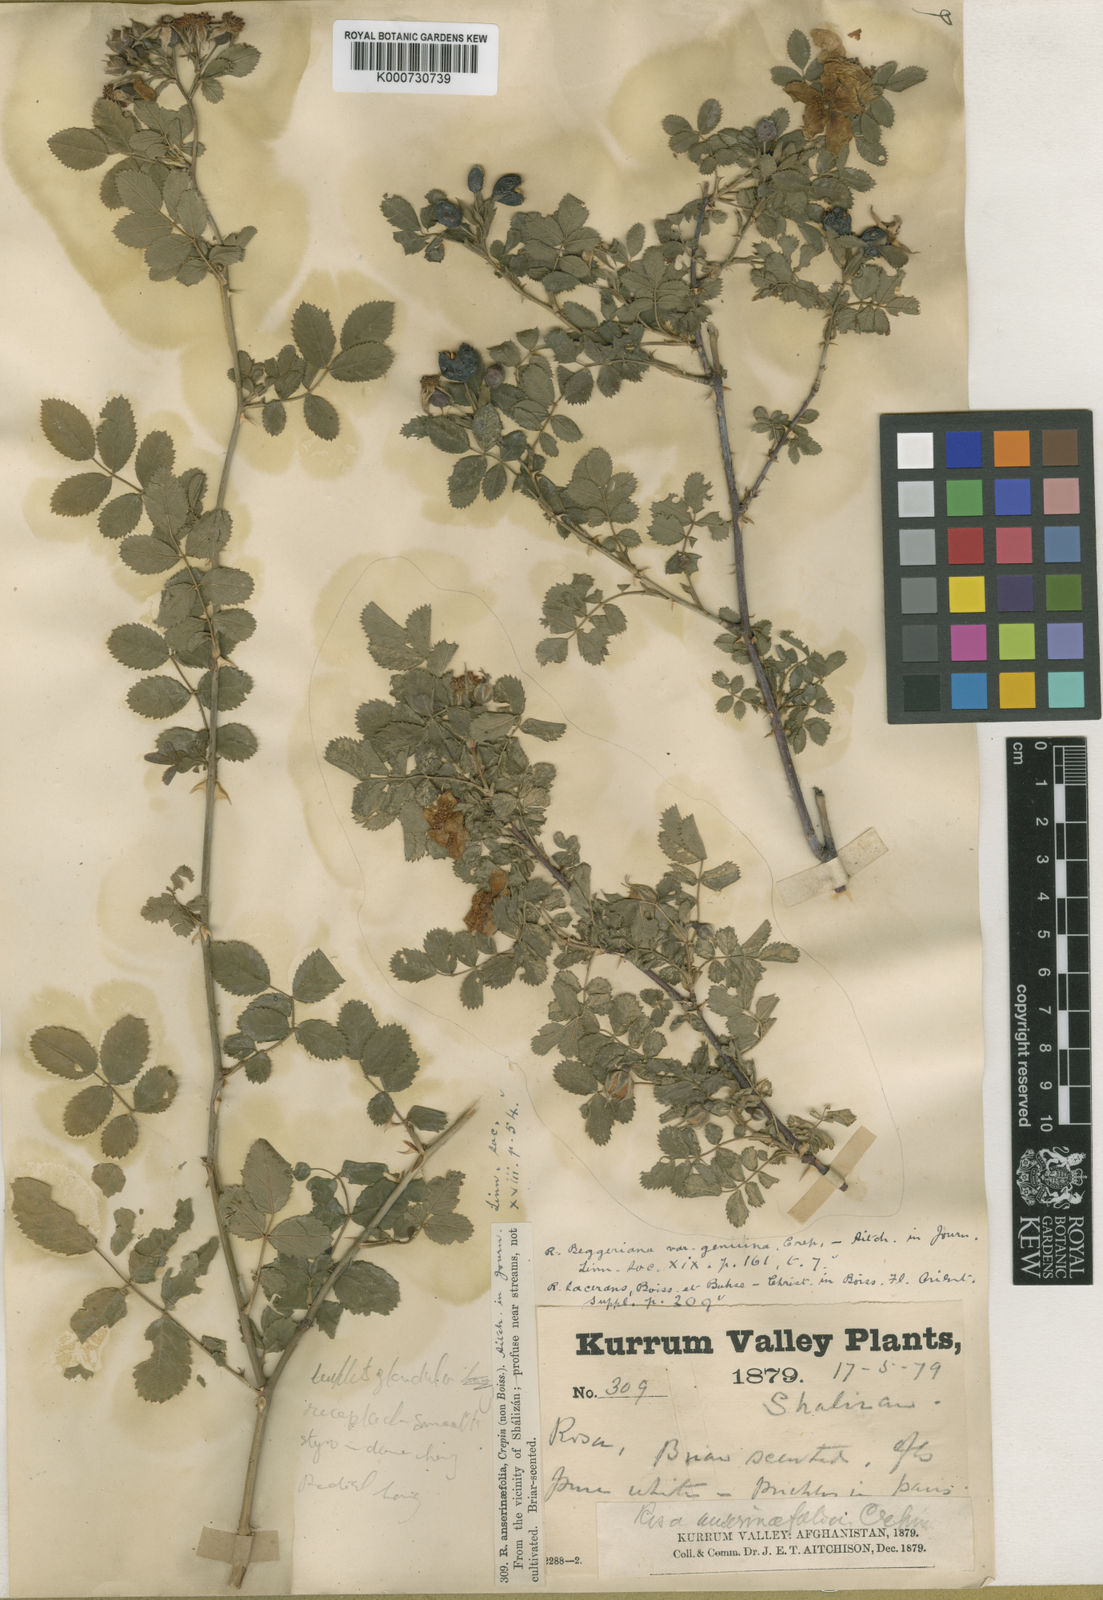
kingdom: Plantae
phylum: Tracheophyta
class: Magnoliopsida
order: Rosales
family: Rosaceae
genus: Rosa
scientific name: Rosa beggeriana
